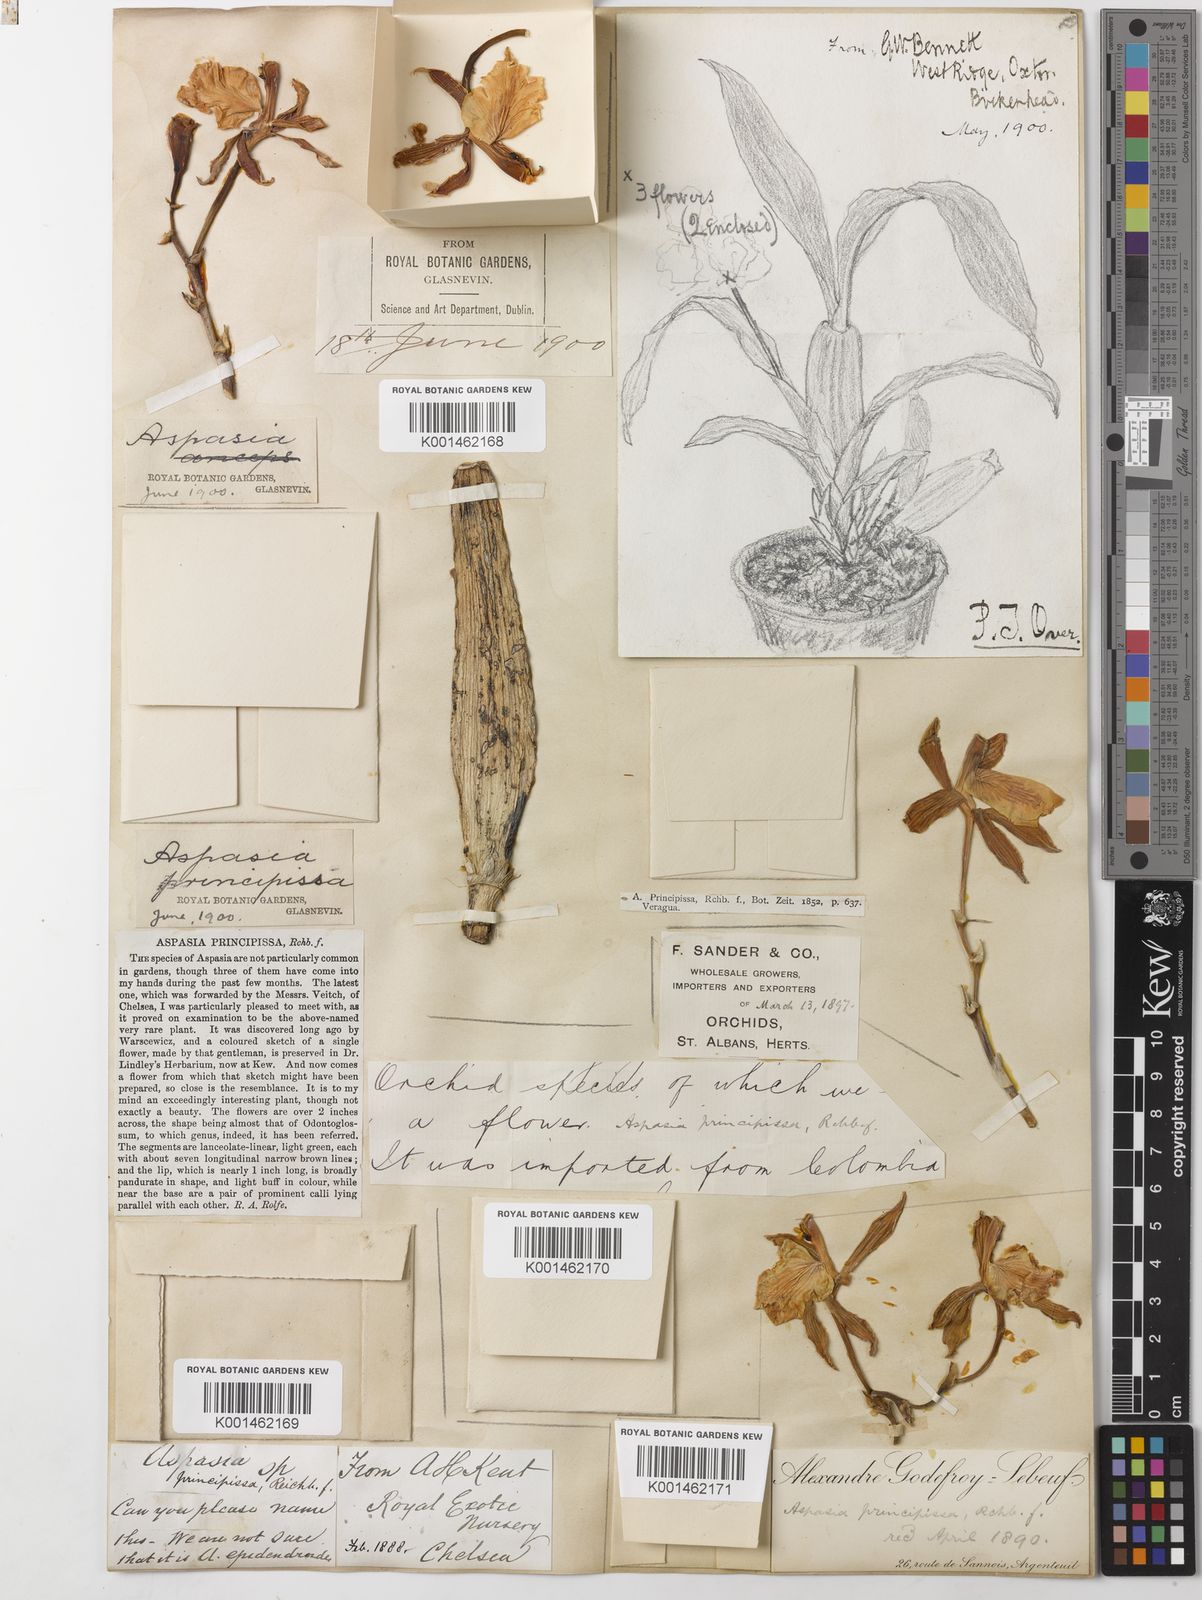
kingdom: Plantae
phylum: Tracheophyta
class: Liliopsida
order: Asparagales
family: Orchidaceae
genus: Aspasia
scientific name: Aspasia epidendroides
